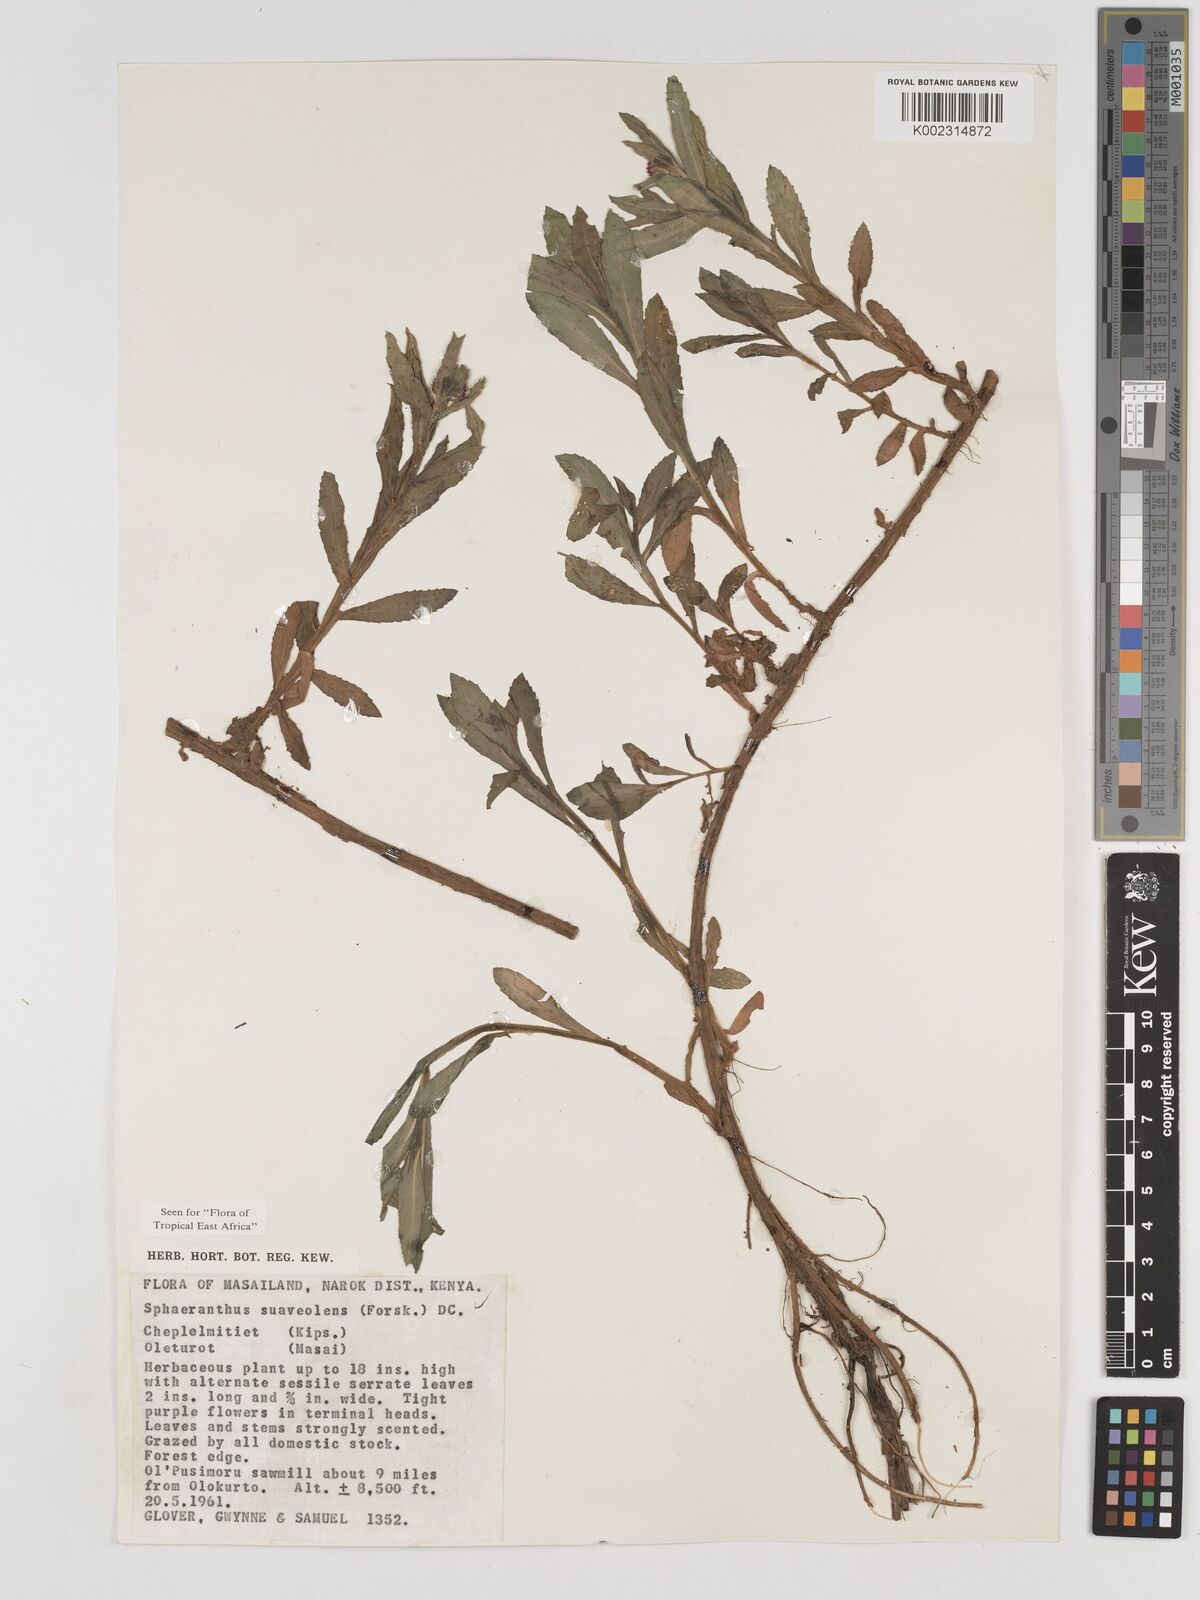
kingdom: Plantae
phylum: Tracheophyta
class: Magnoliopsida
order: Asterales
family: Asteraceae
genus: Sphaeranthus
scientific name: Sphaeranthus suaveolens
